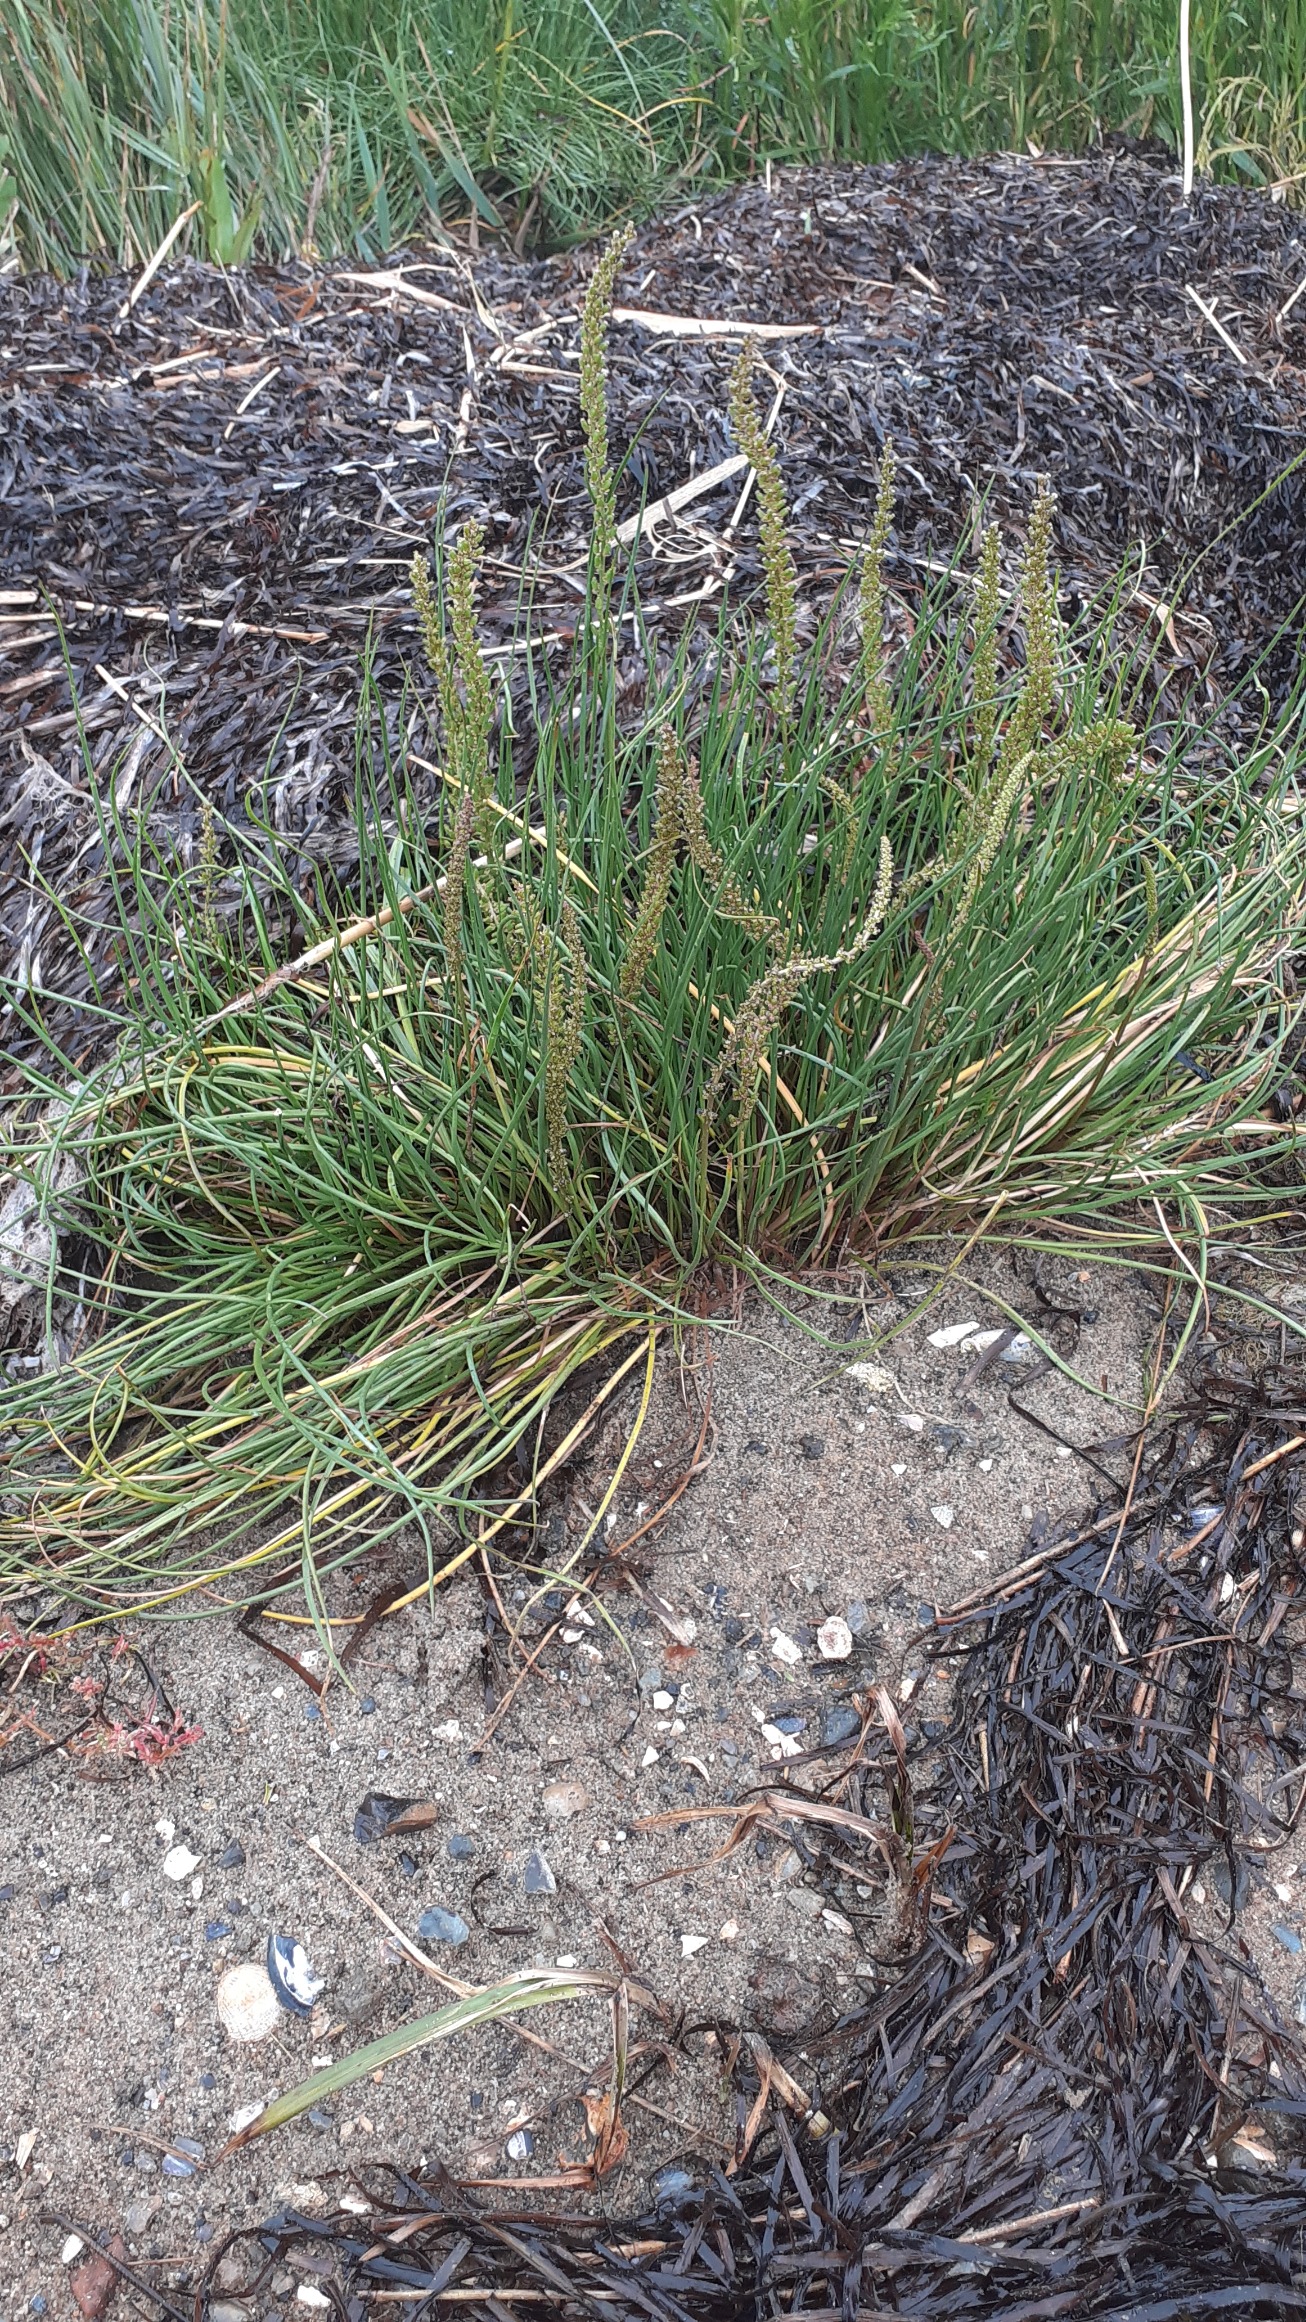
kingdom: Plantae
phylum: Tracheophyta
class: Magnoliopsida
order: Lamiales
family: Plantaginaceae
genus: Plantago
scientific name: Plantago maritima
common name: Strand-vejbred
